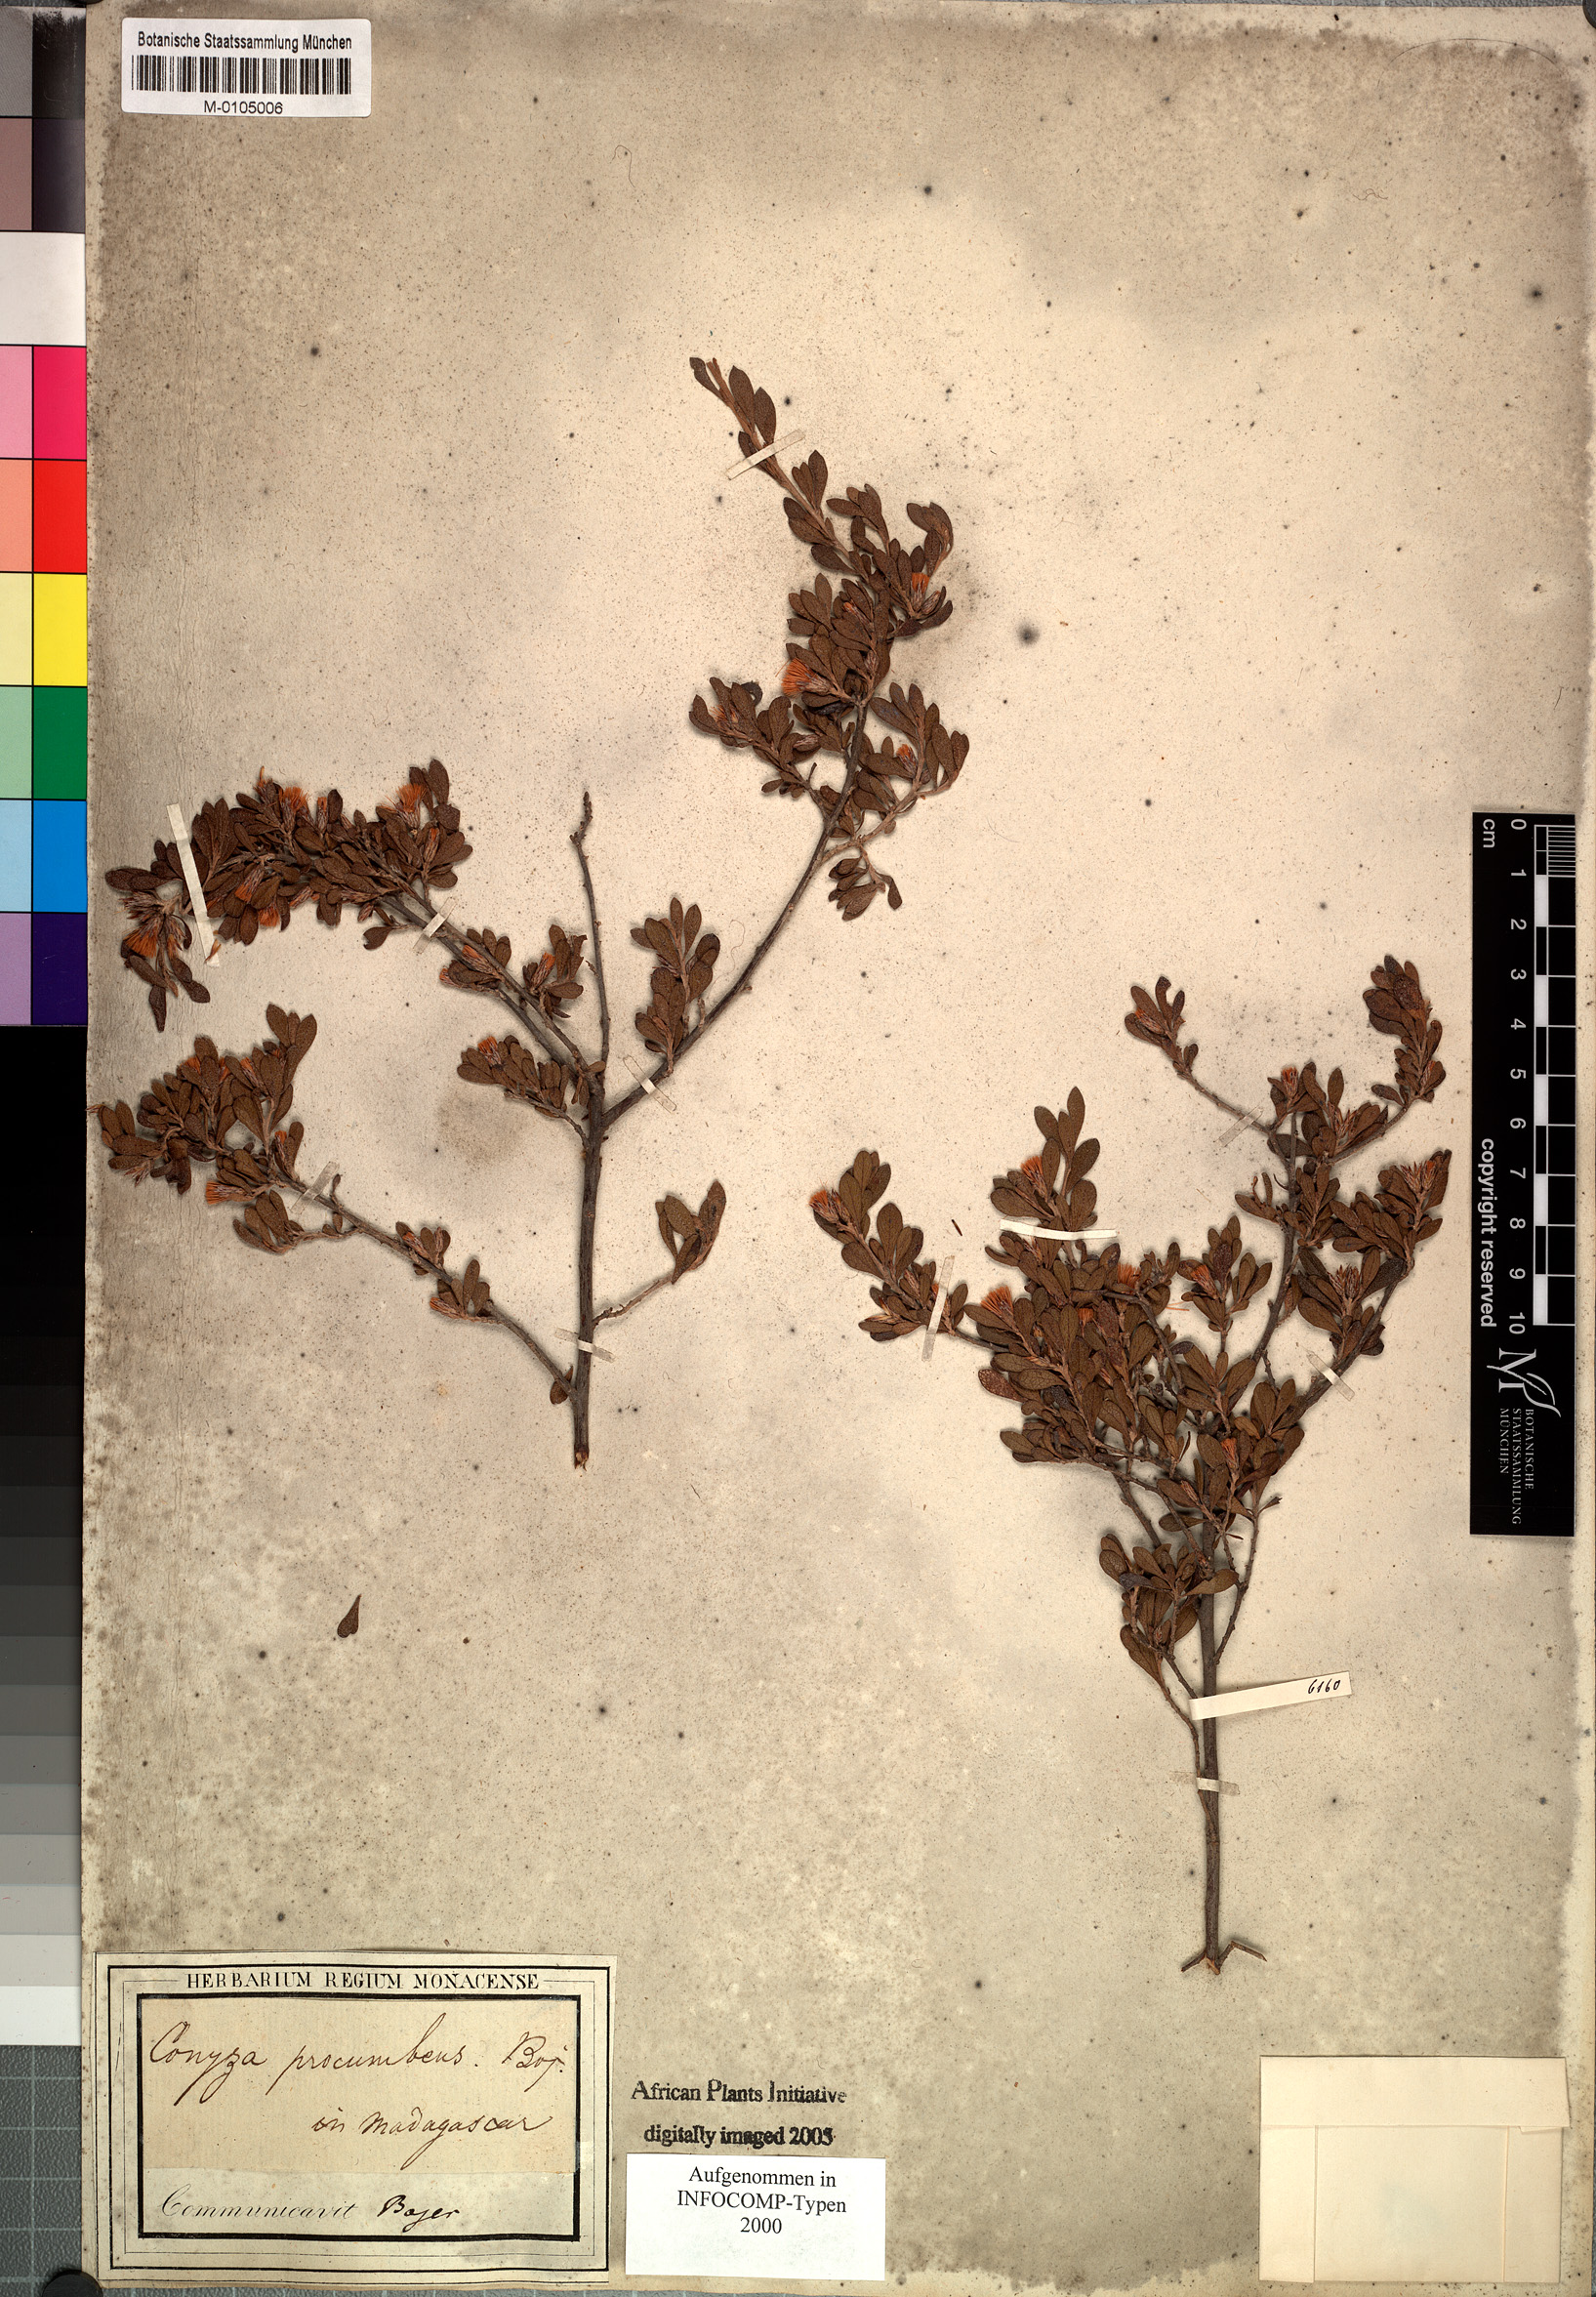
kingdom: Plantae
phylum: Tracheophyta
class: Magnoliopsida
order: Asterales
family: Asteraceae
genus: Pluchea
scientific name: Pluchea bojeri
